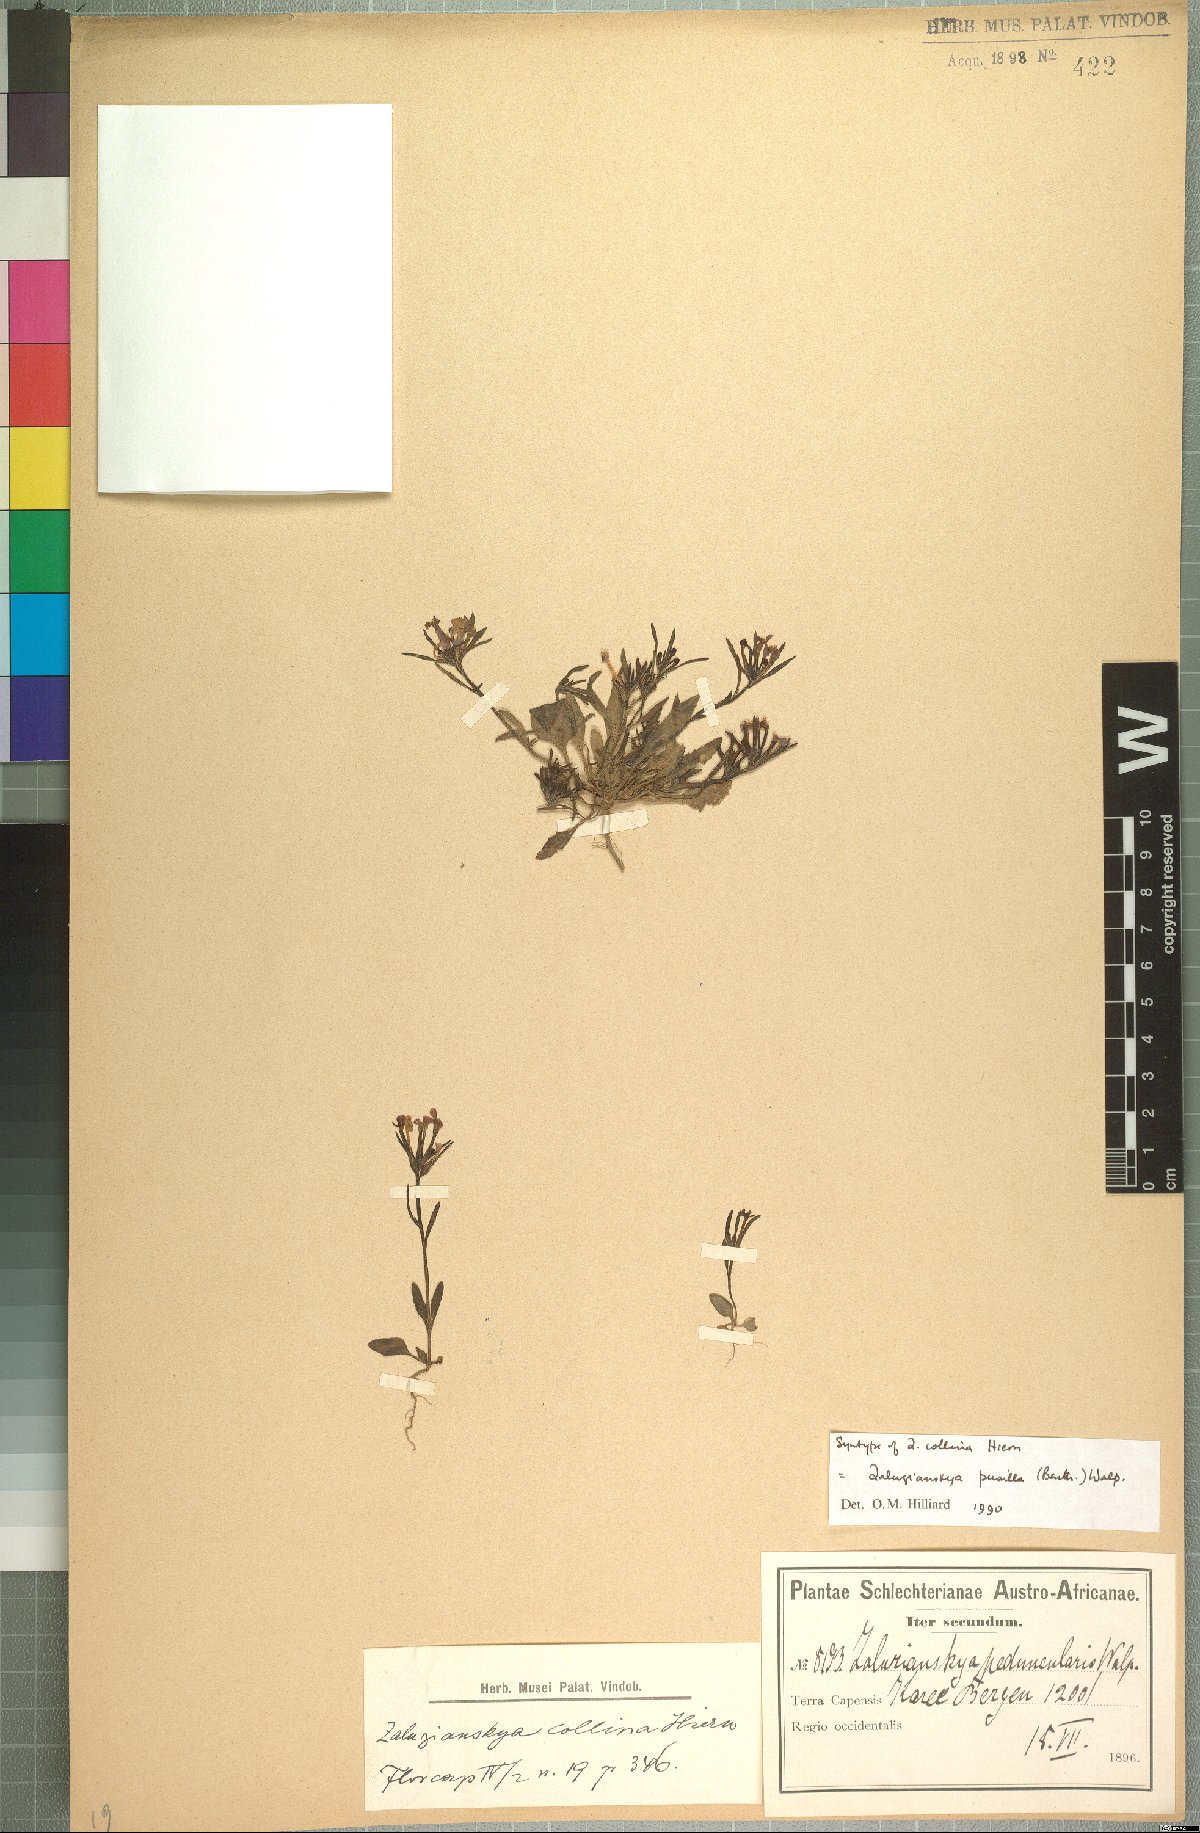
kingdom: Plantae
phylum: Tracheophyta
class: Magnoliopsida
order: Lamiales
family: Scrophulariaceae
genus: Zaluzianskya
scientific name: Zaluzianskya pusilla
